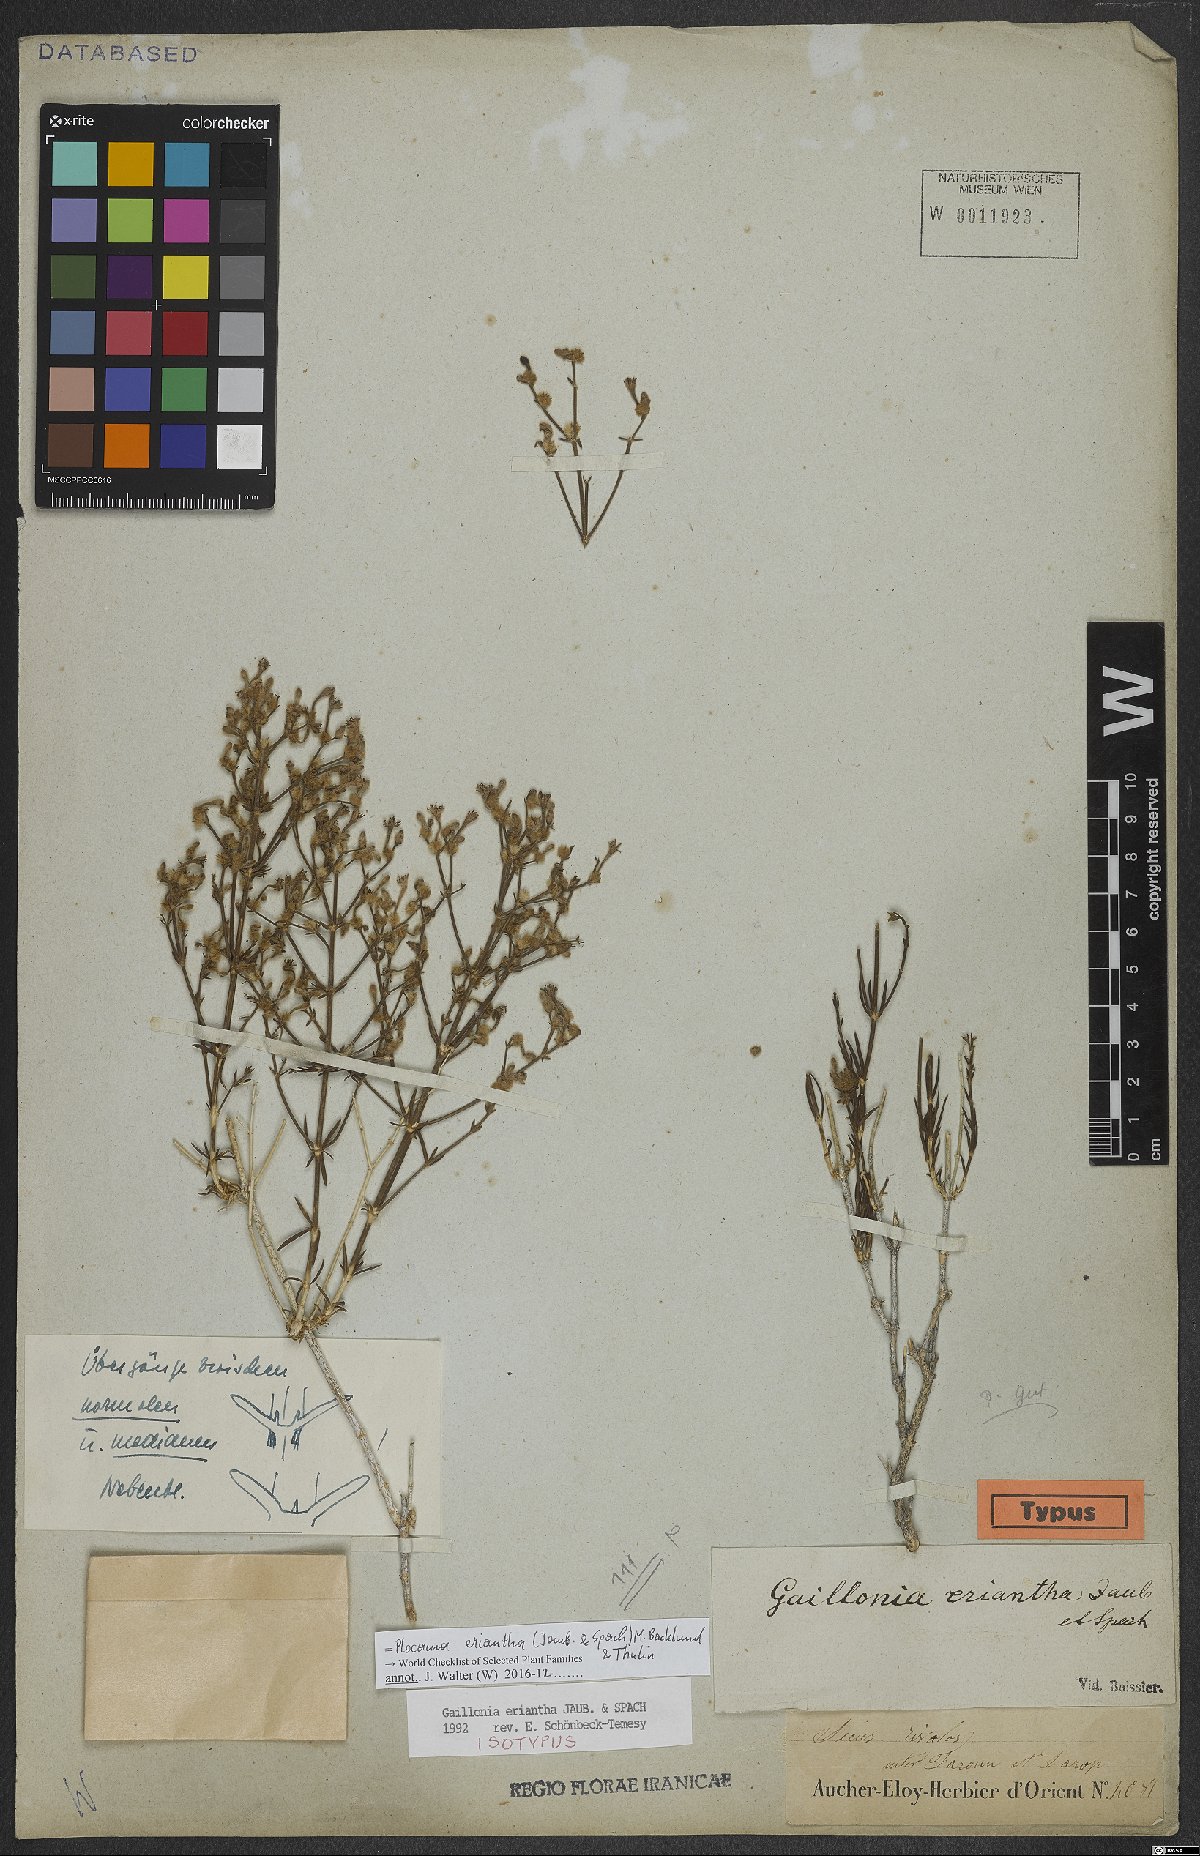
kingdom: Plantae
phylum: Tracheophyta
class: Magnoliopsida
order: Gentianales
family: Rubiaceae
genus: Plocama
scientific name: Plocama eriantha
